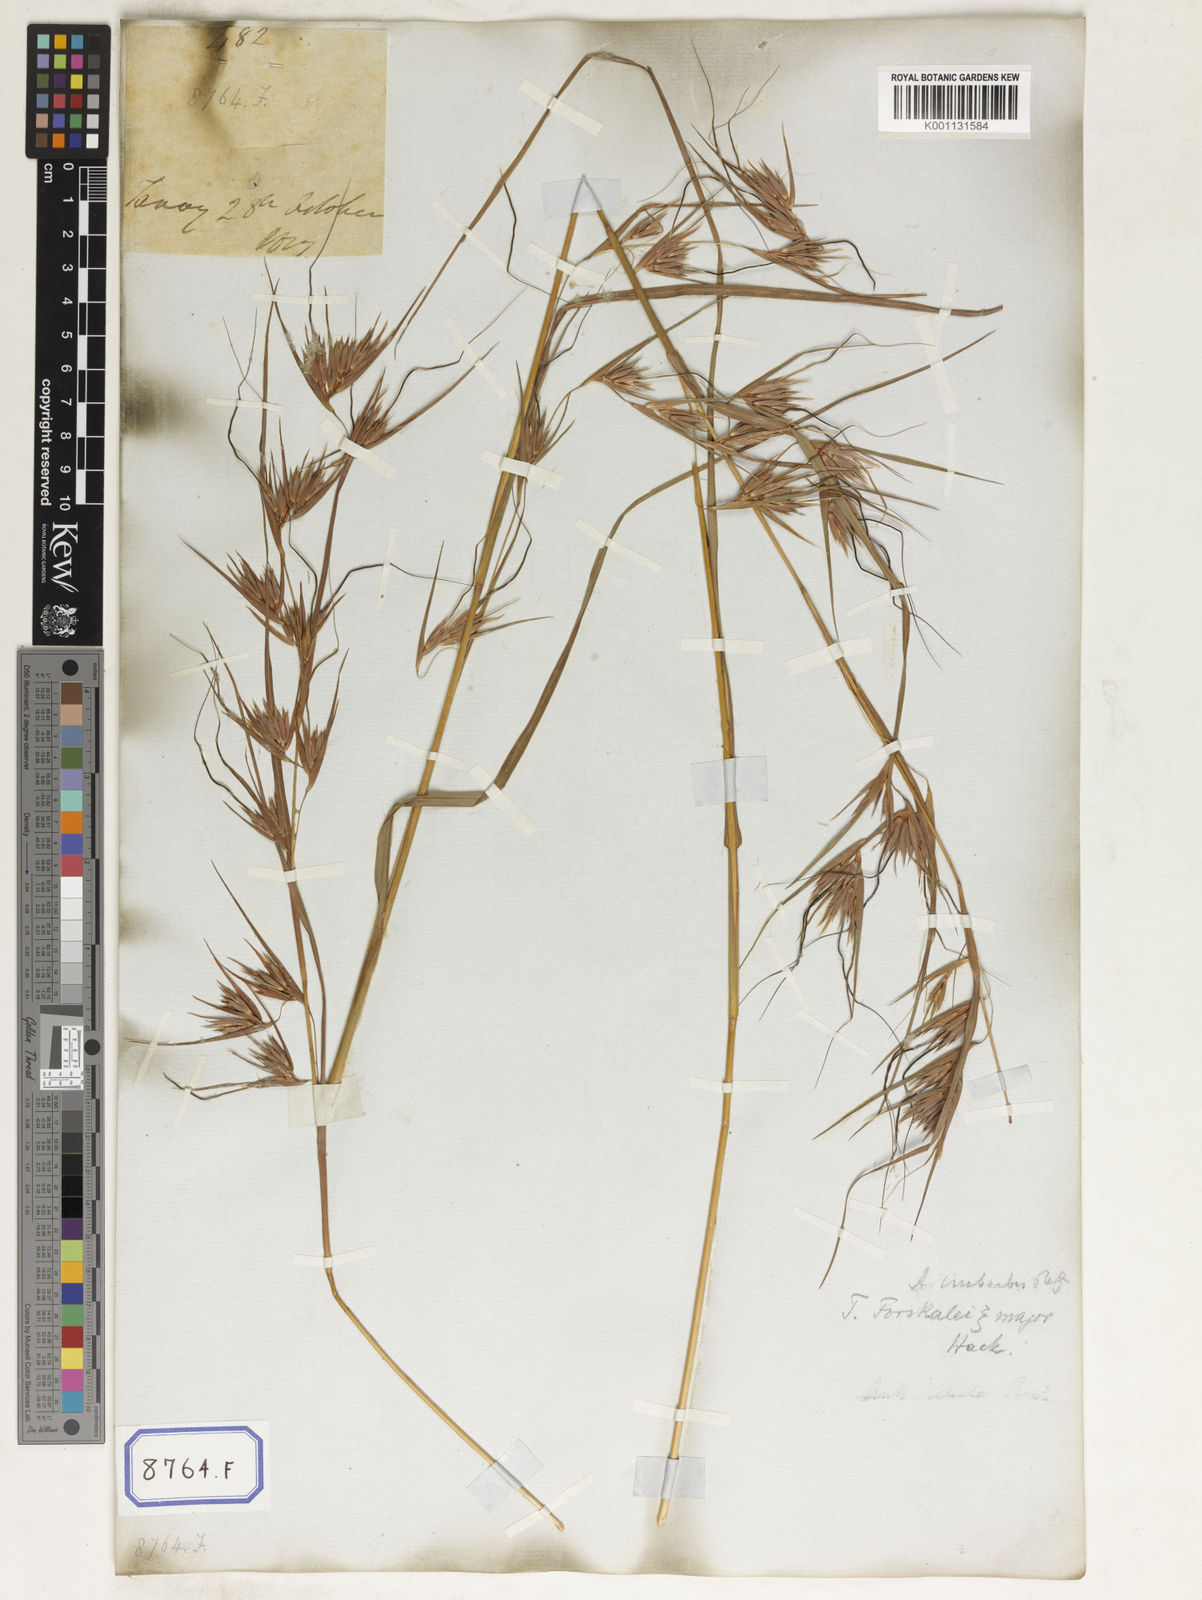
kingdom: Plantae
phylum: Tracheophyta
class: Liliopsida
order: Poales
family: Poaceae
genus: Themeda
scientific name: Themeda
